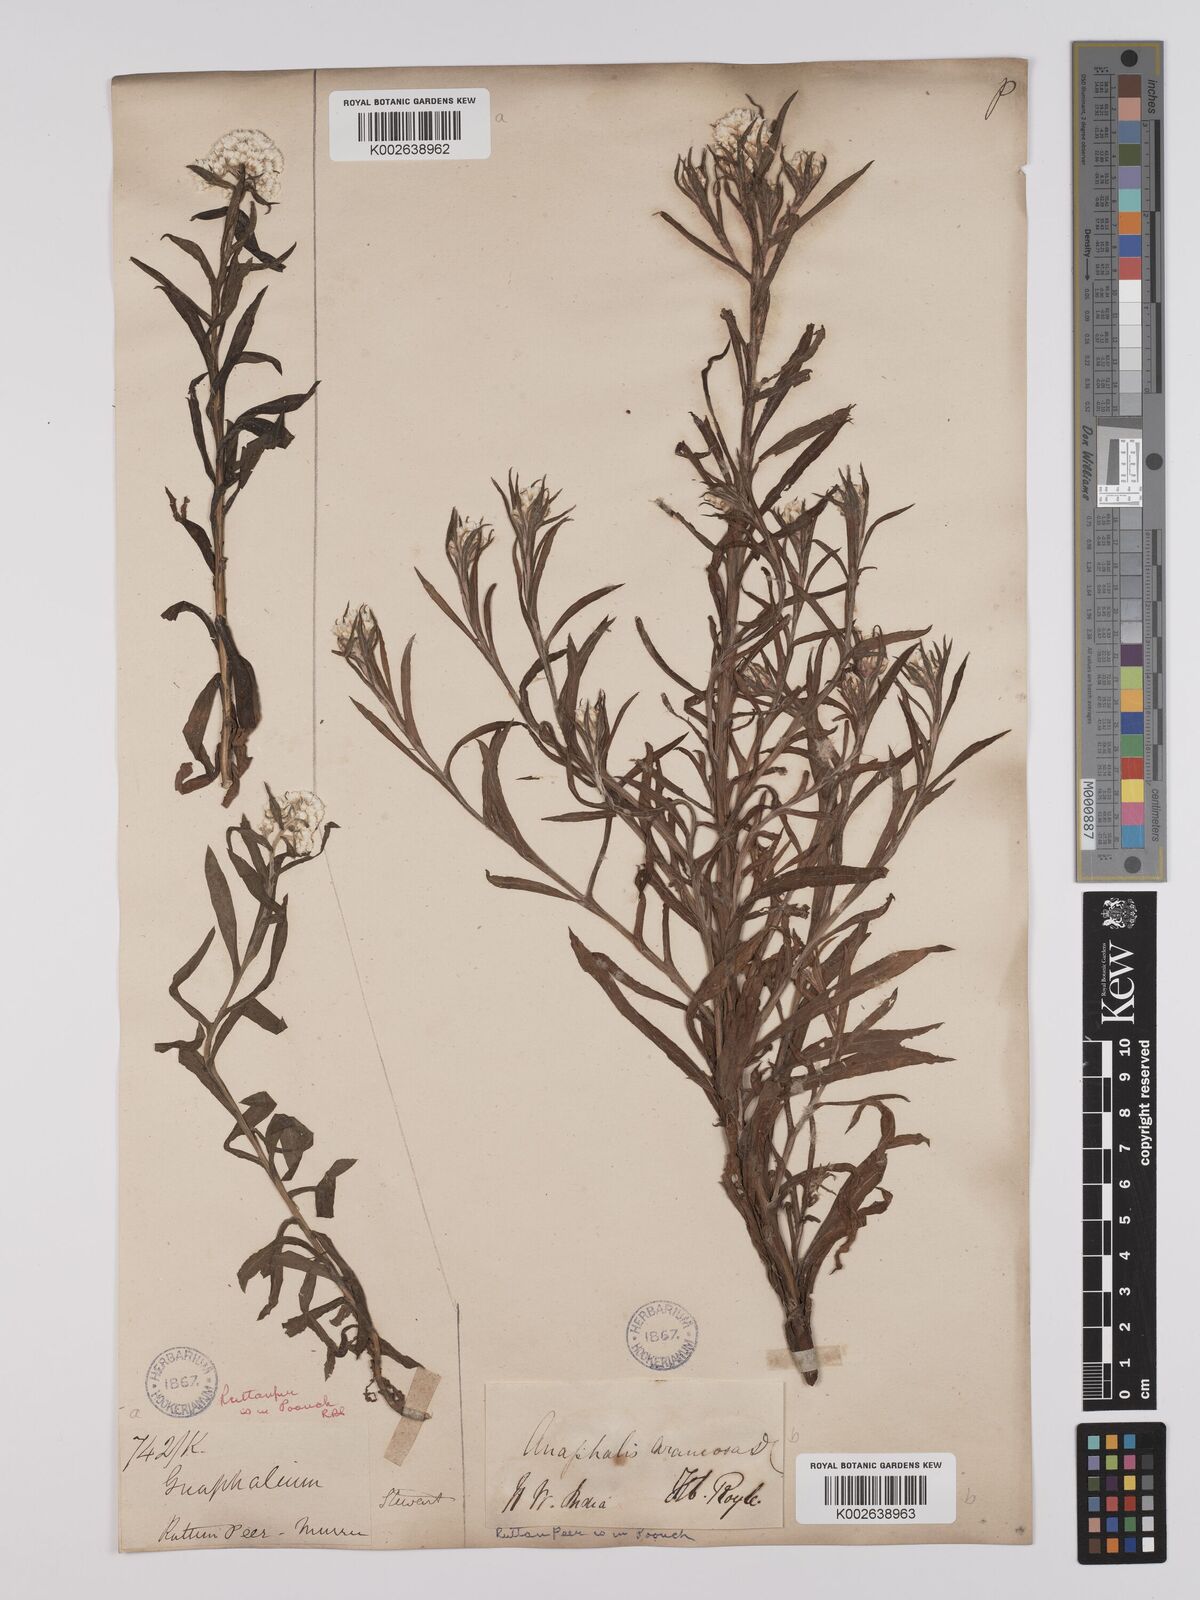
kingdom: Plantae
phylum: Tracheophyta
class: Magnoliopsida
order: Asterales
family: Asteraceae
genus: Anaphalis
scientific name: Anaphalis busua
